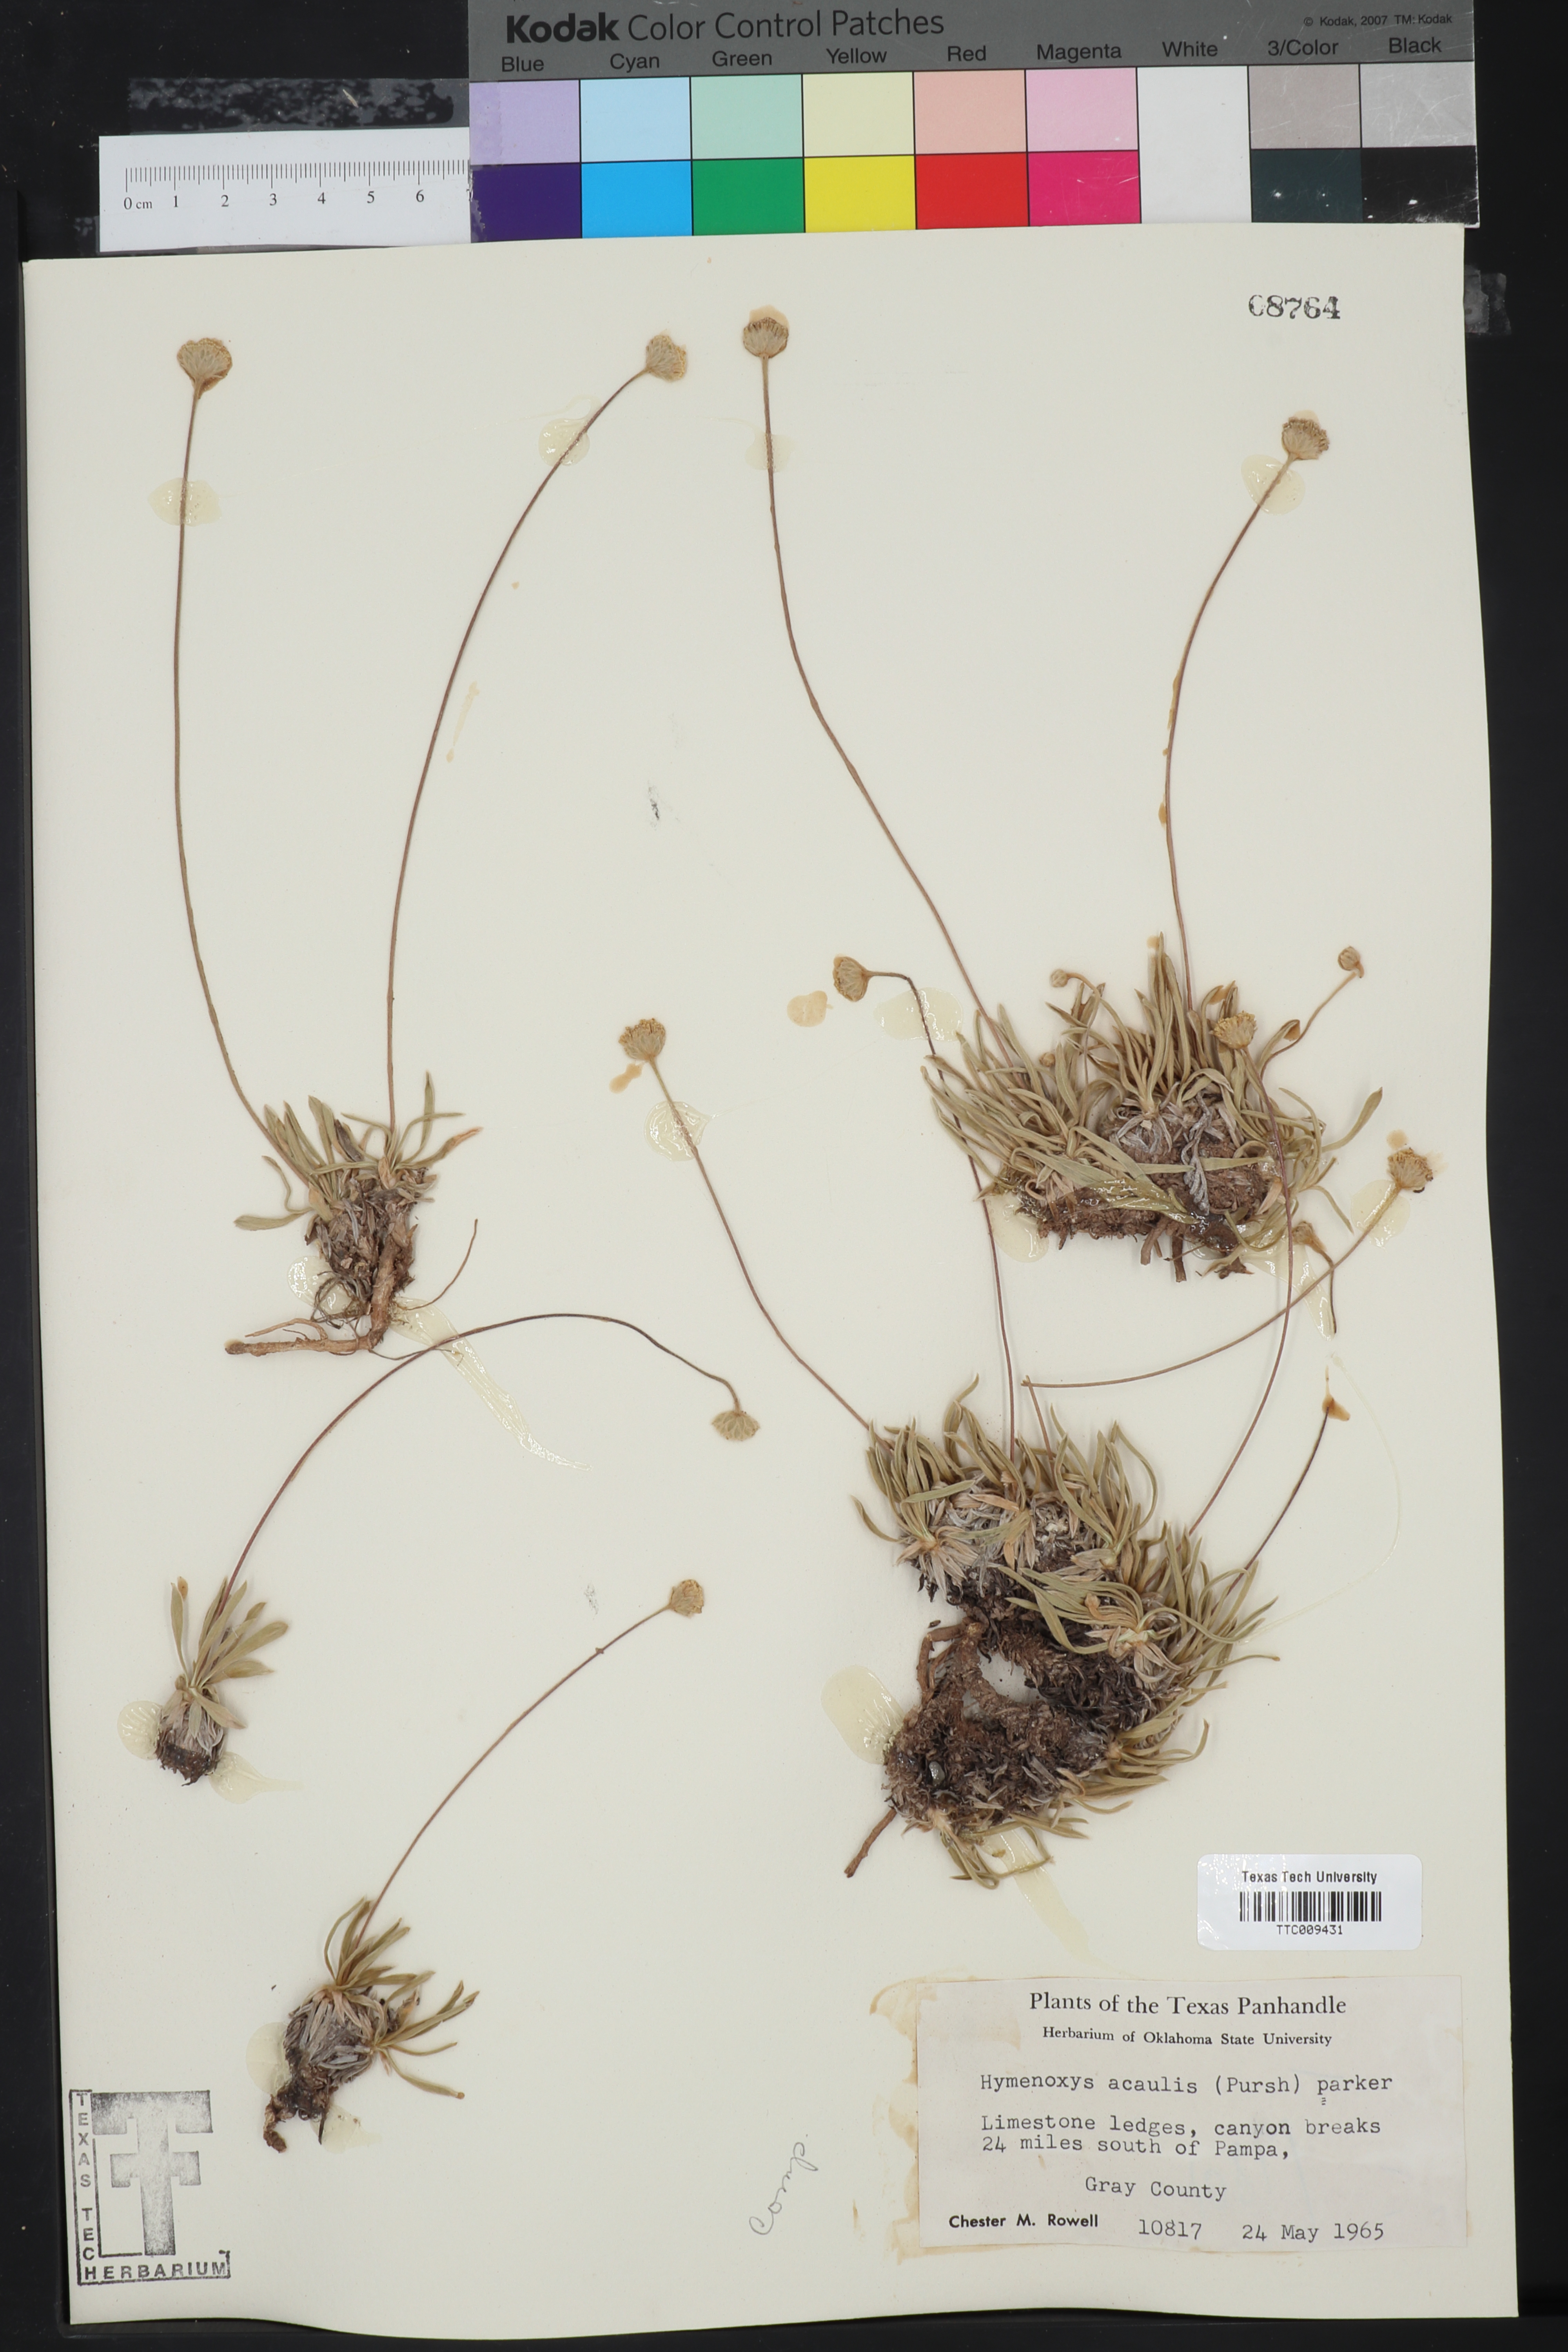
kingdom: Plantae
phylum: Tracheophyta
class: Magnoliopsida
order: Asterales
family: Asteraceae
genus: Tetraneuris
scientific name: Tetraneuris acaulis
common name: Butte marigold
